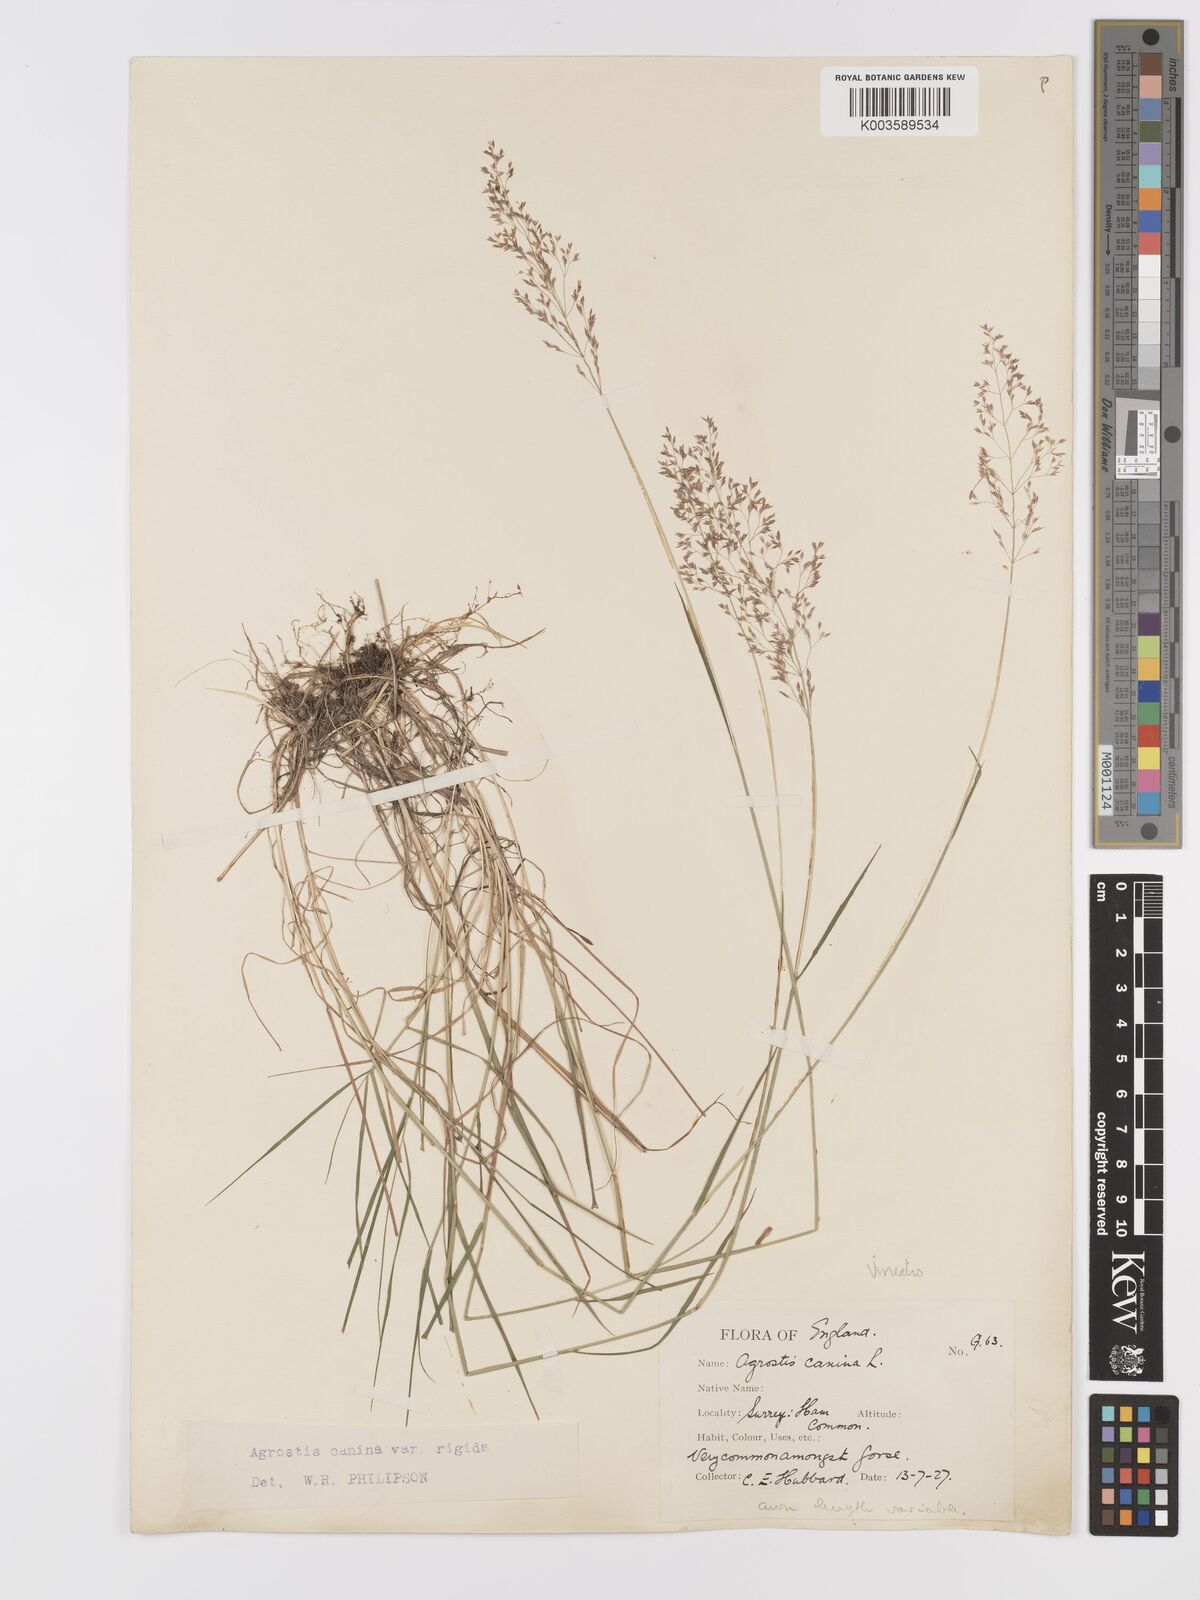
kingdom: Plantae
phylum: Tracheophyta
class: Liliopsida
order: Poales
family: Poaceae
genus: Agrostis
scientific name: Agrostis
